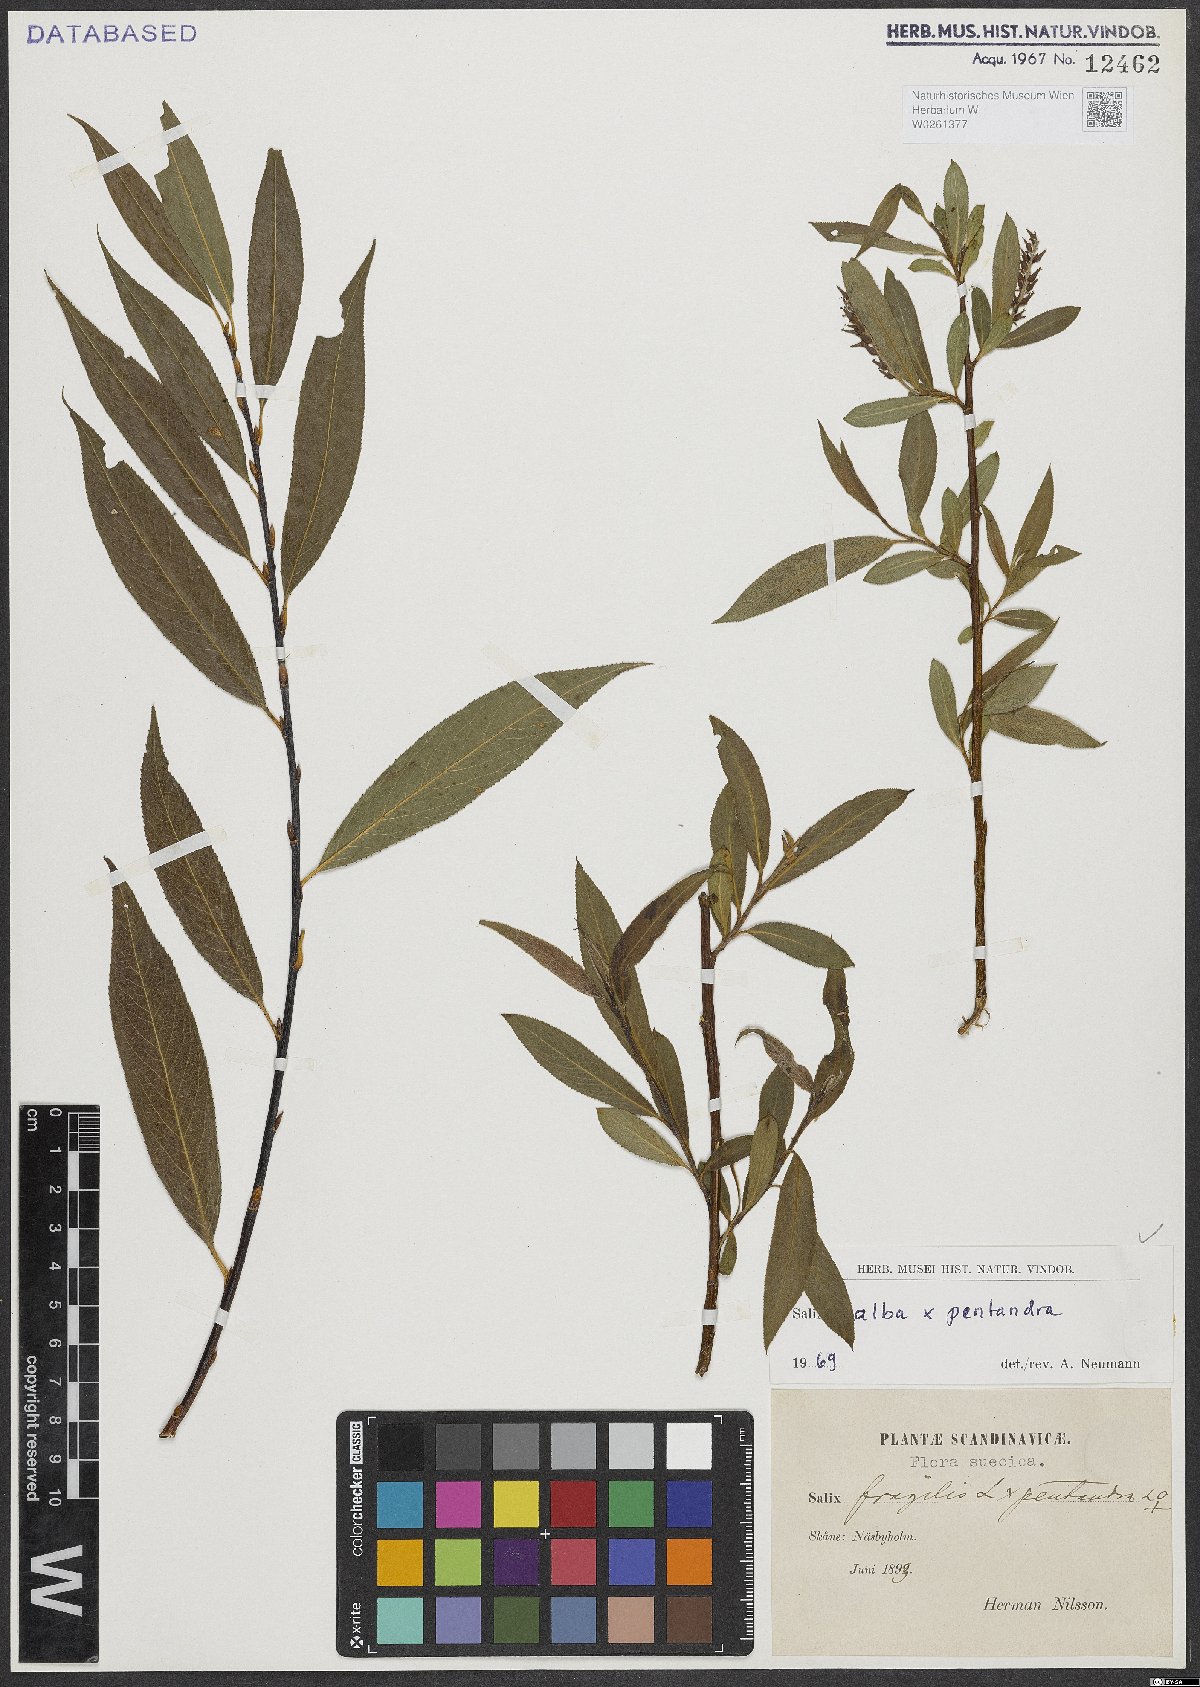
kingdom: Plantae
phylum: Tracheophyta
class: Magnoliopsida
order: Malpighiales
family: Salicaceae
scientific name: Salicaceae
